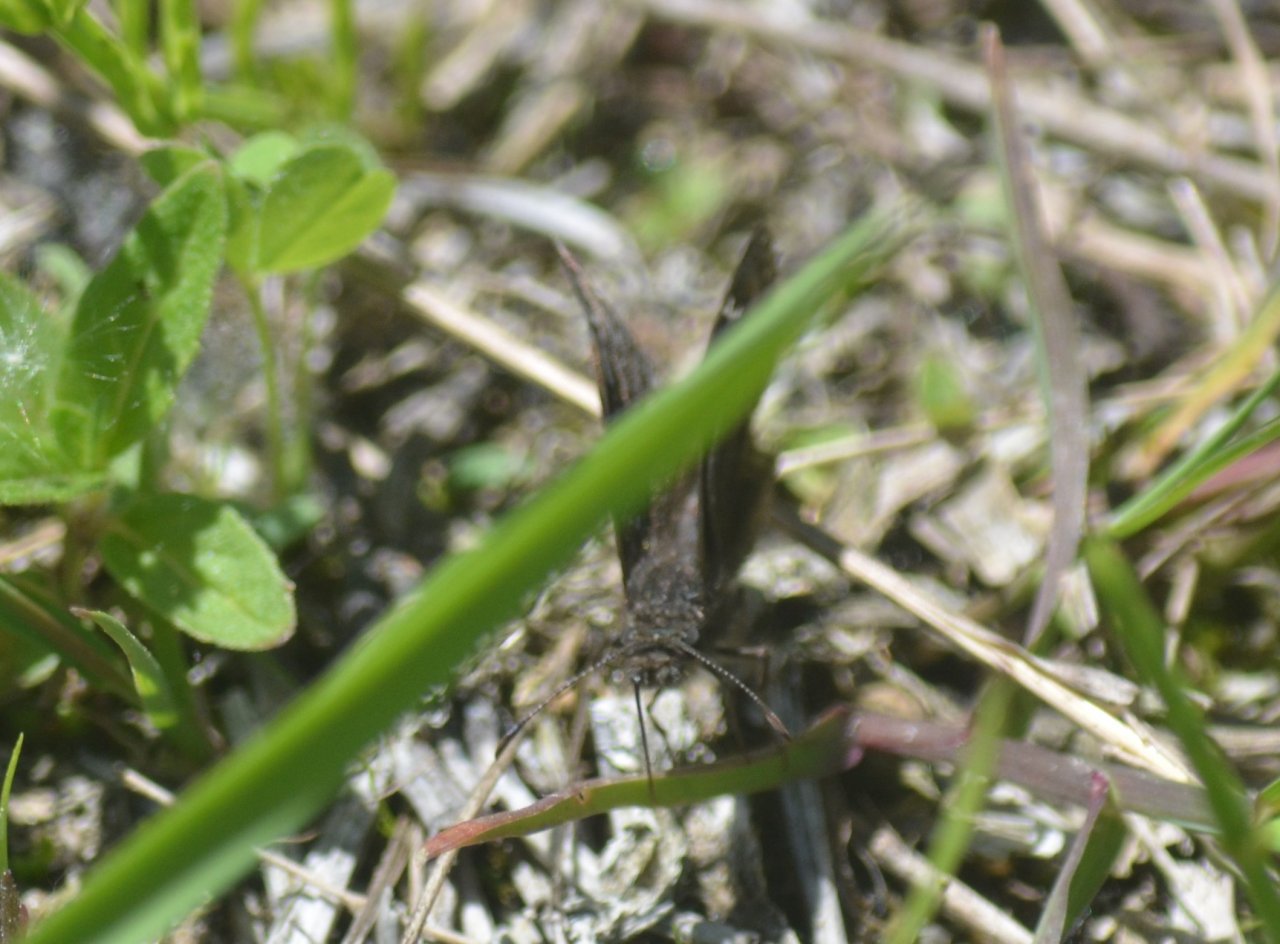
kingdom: Animalia
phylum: Arthropoda
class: Insecta
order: Lepidoptera
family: Hesperiidae
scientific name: Hesperiidae
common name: Skippers
